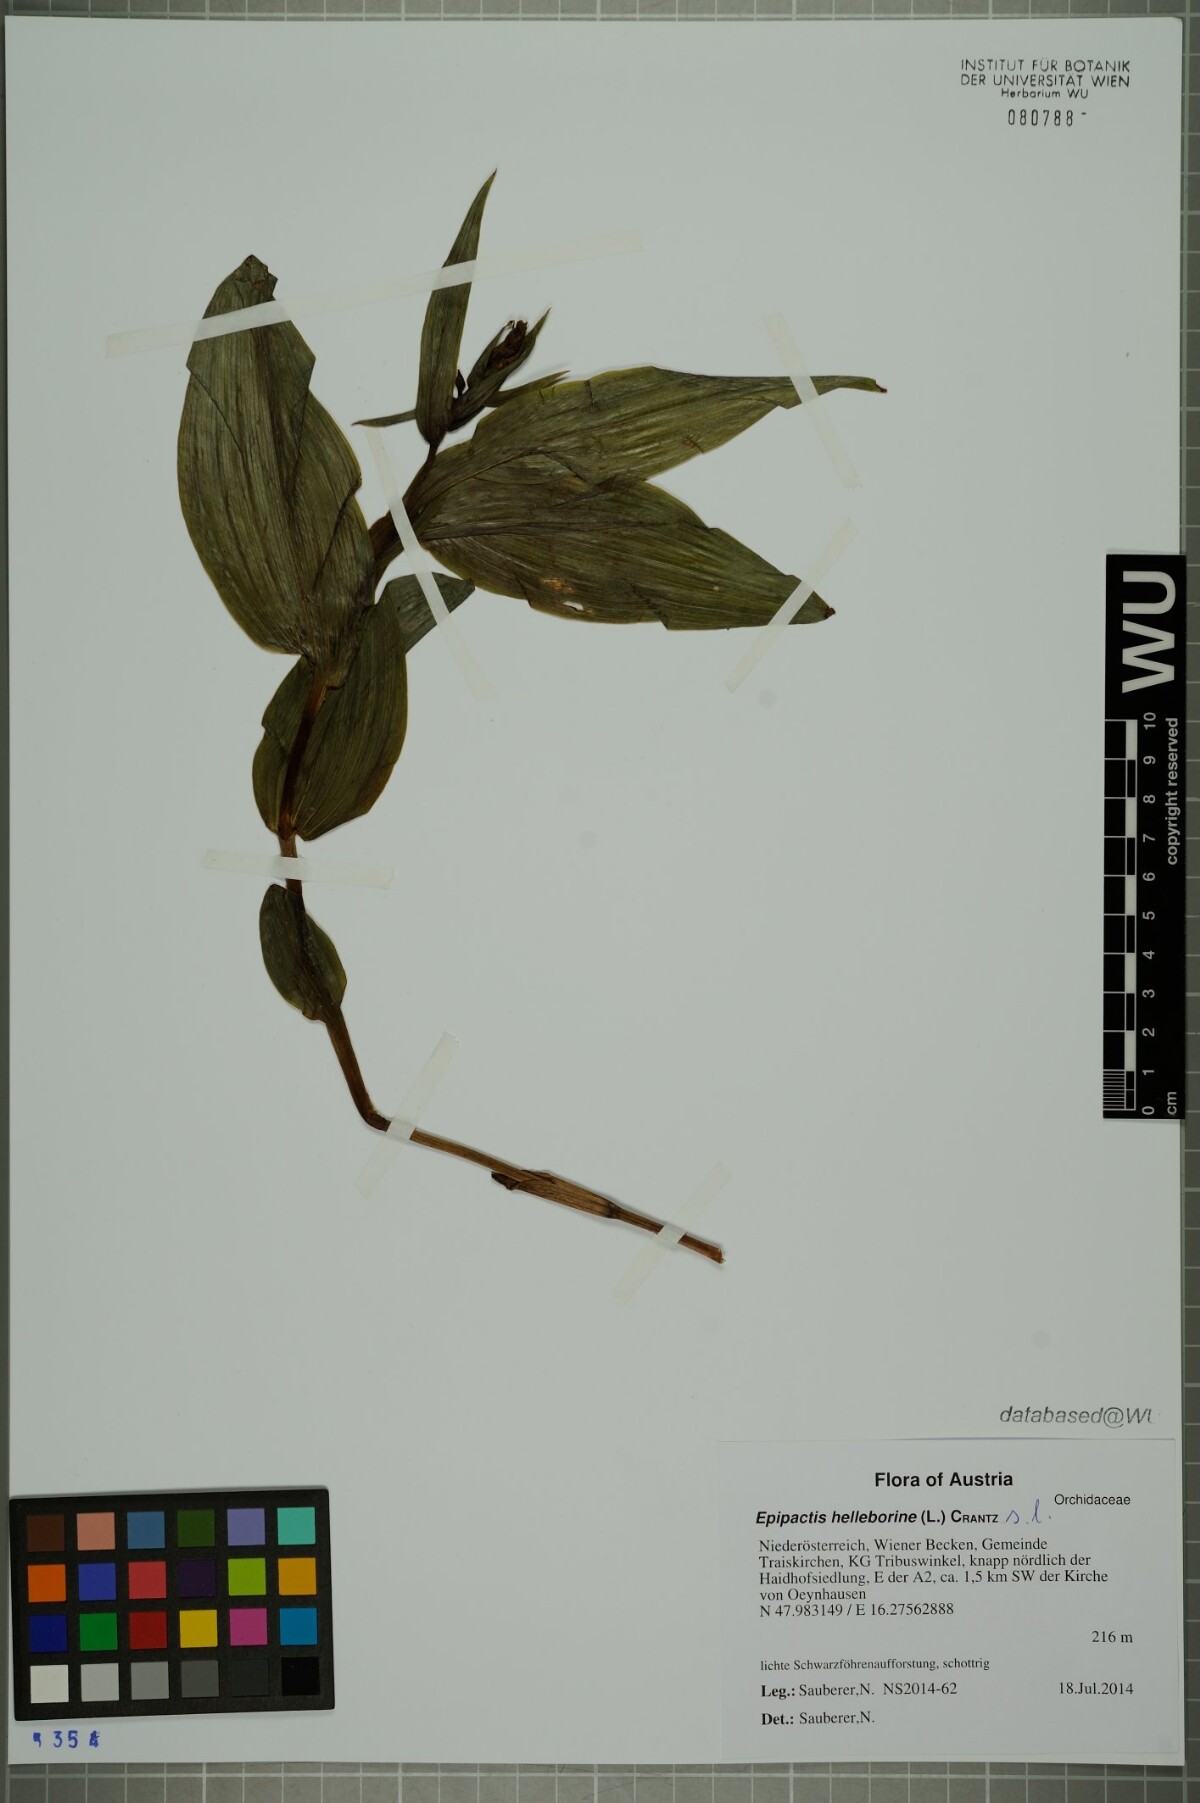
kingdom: Plantae
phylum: Tracheophyta
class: Liliopsida
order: Asparagales
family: Orchidaceae
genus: Epipactis
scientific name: Epipactis helleborine
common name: Broad-leaved helleborine
